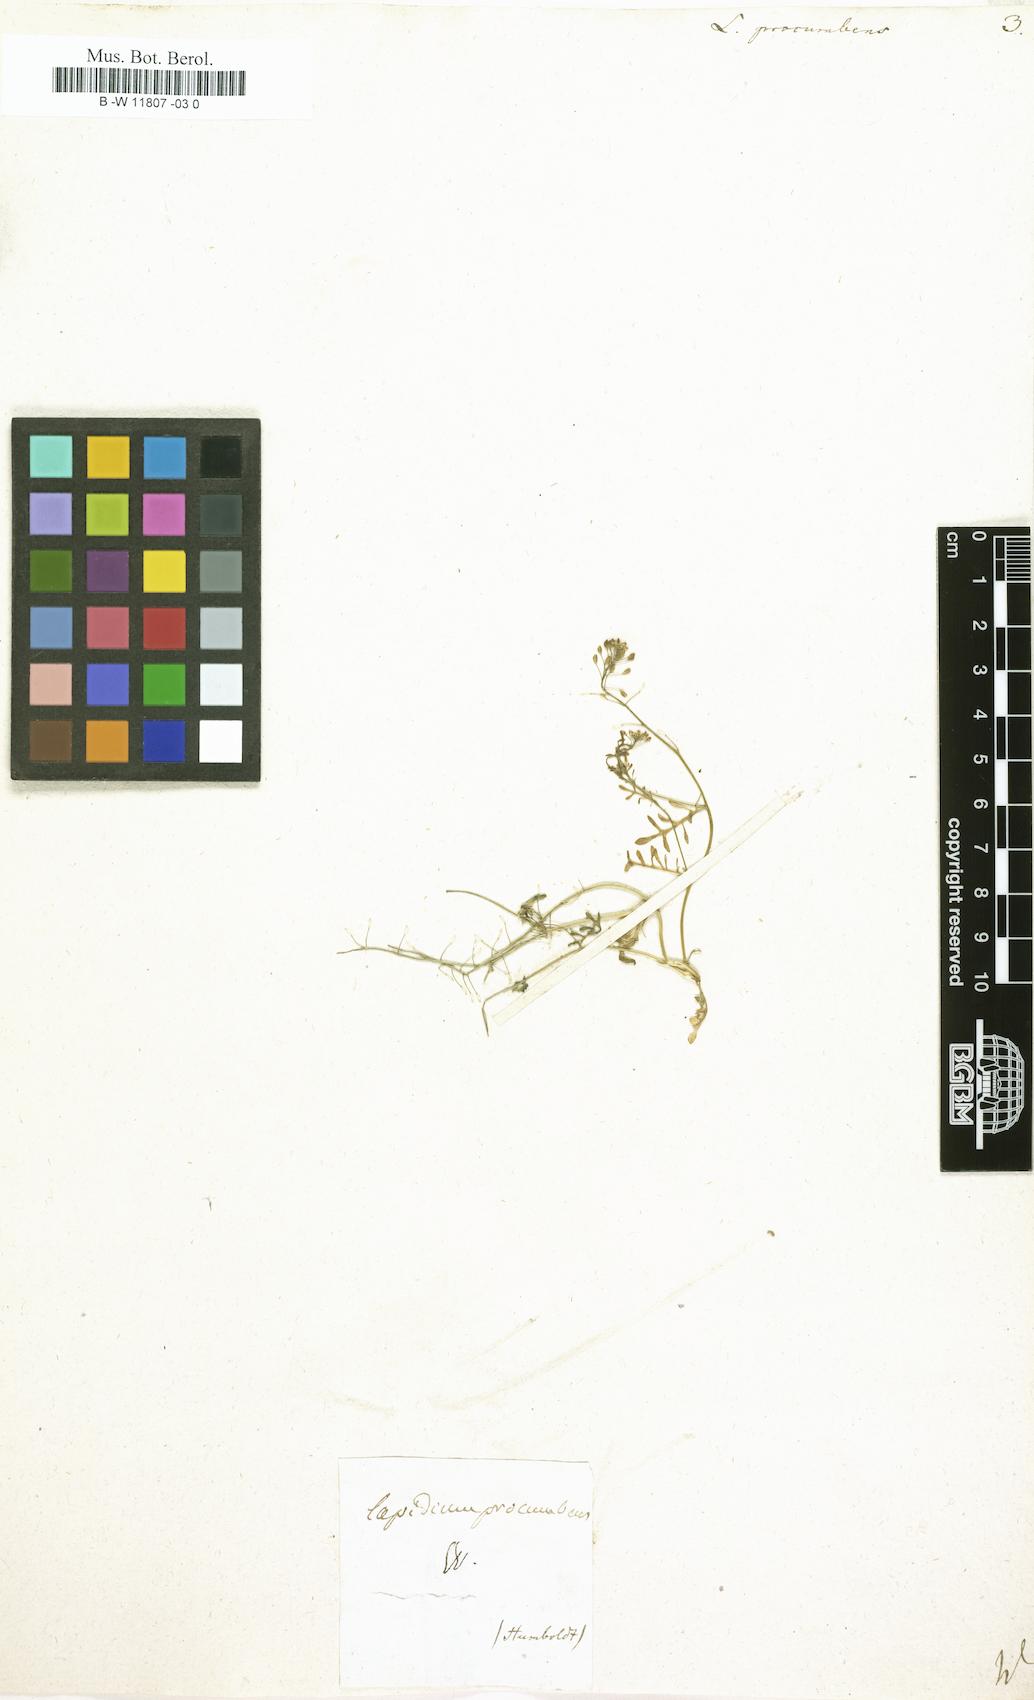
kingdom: Plantae
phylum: Tracheophyta
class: Magnoliopsida
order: Brassicales
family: Brassicaceae
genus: Hornungia
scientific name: Hornungia procumbens
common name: Oval purse
